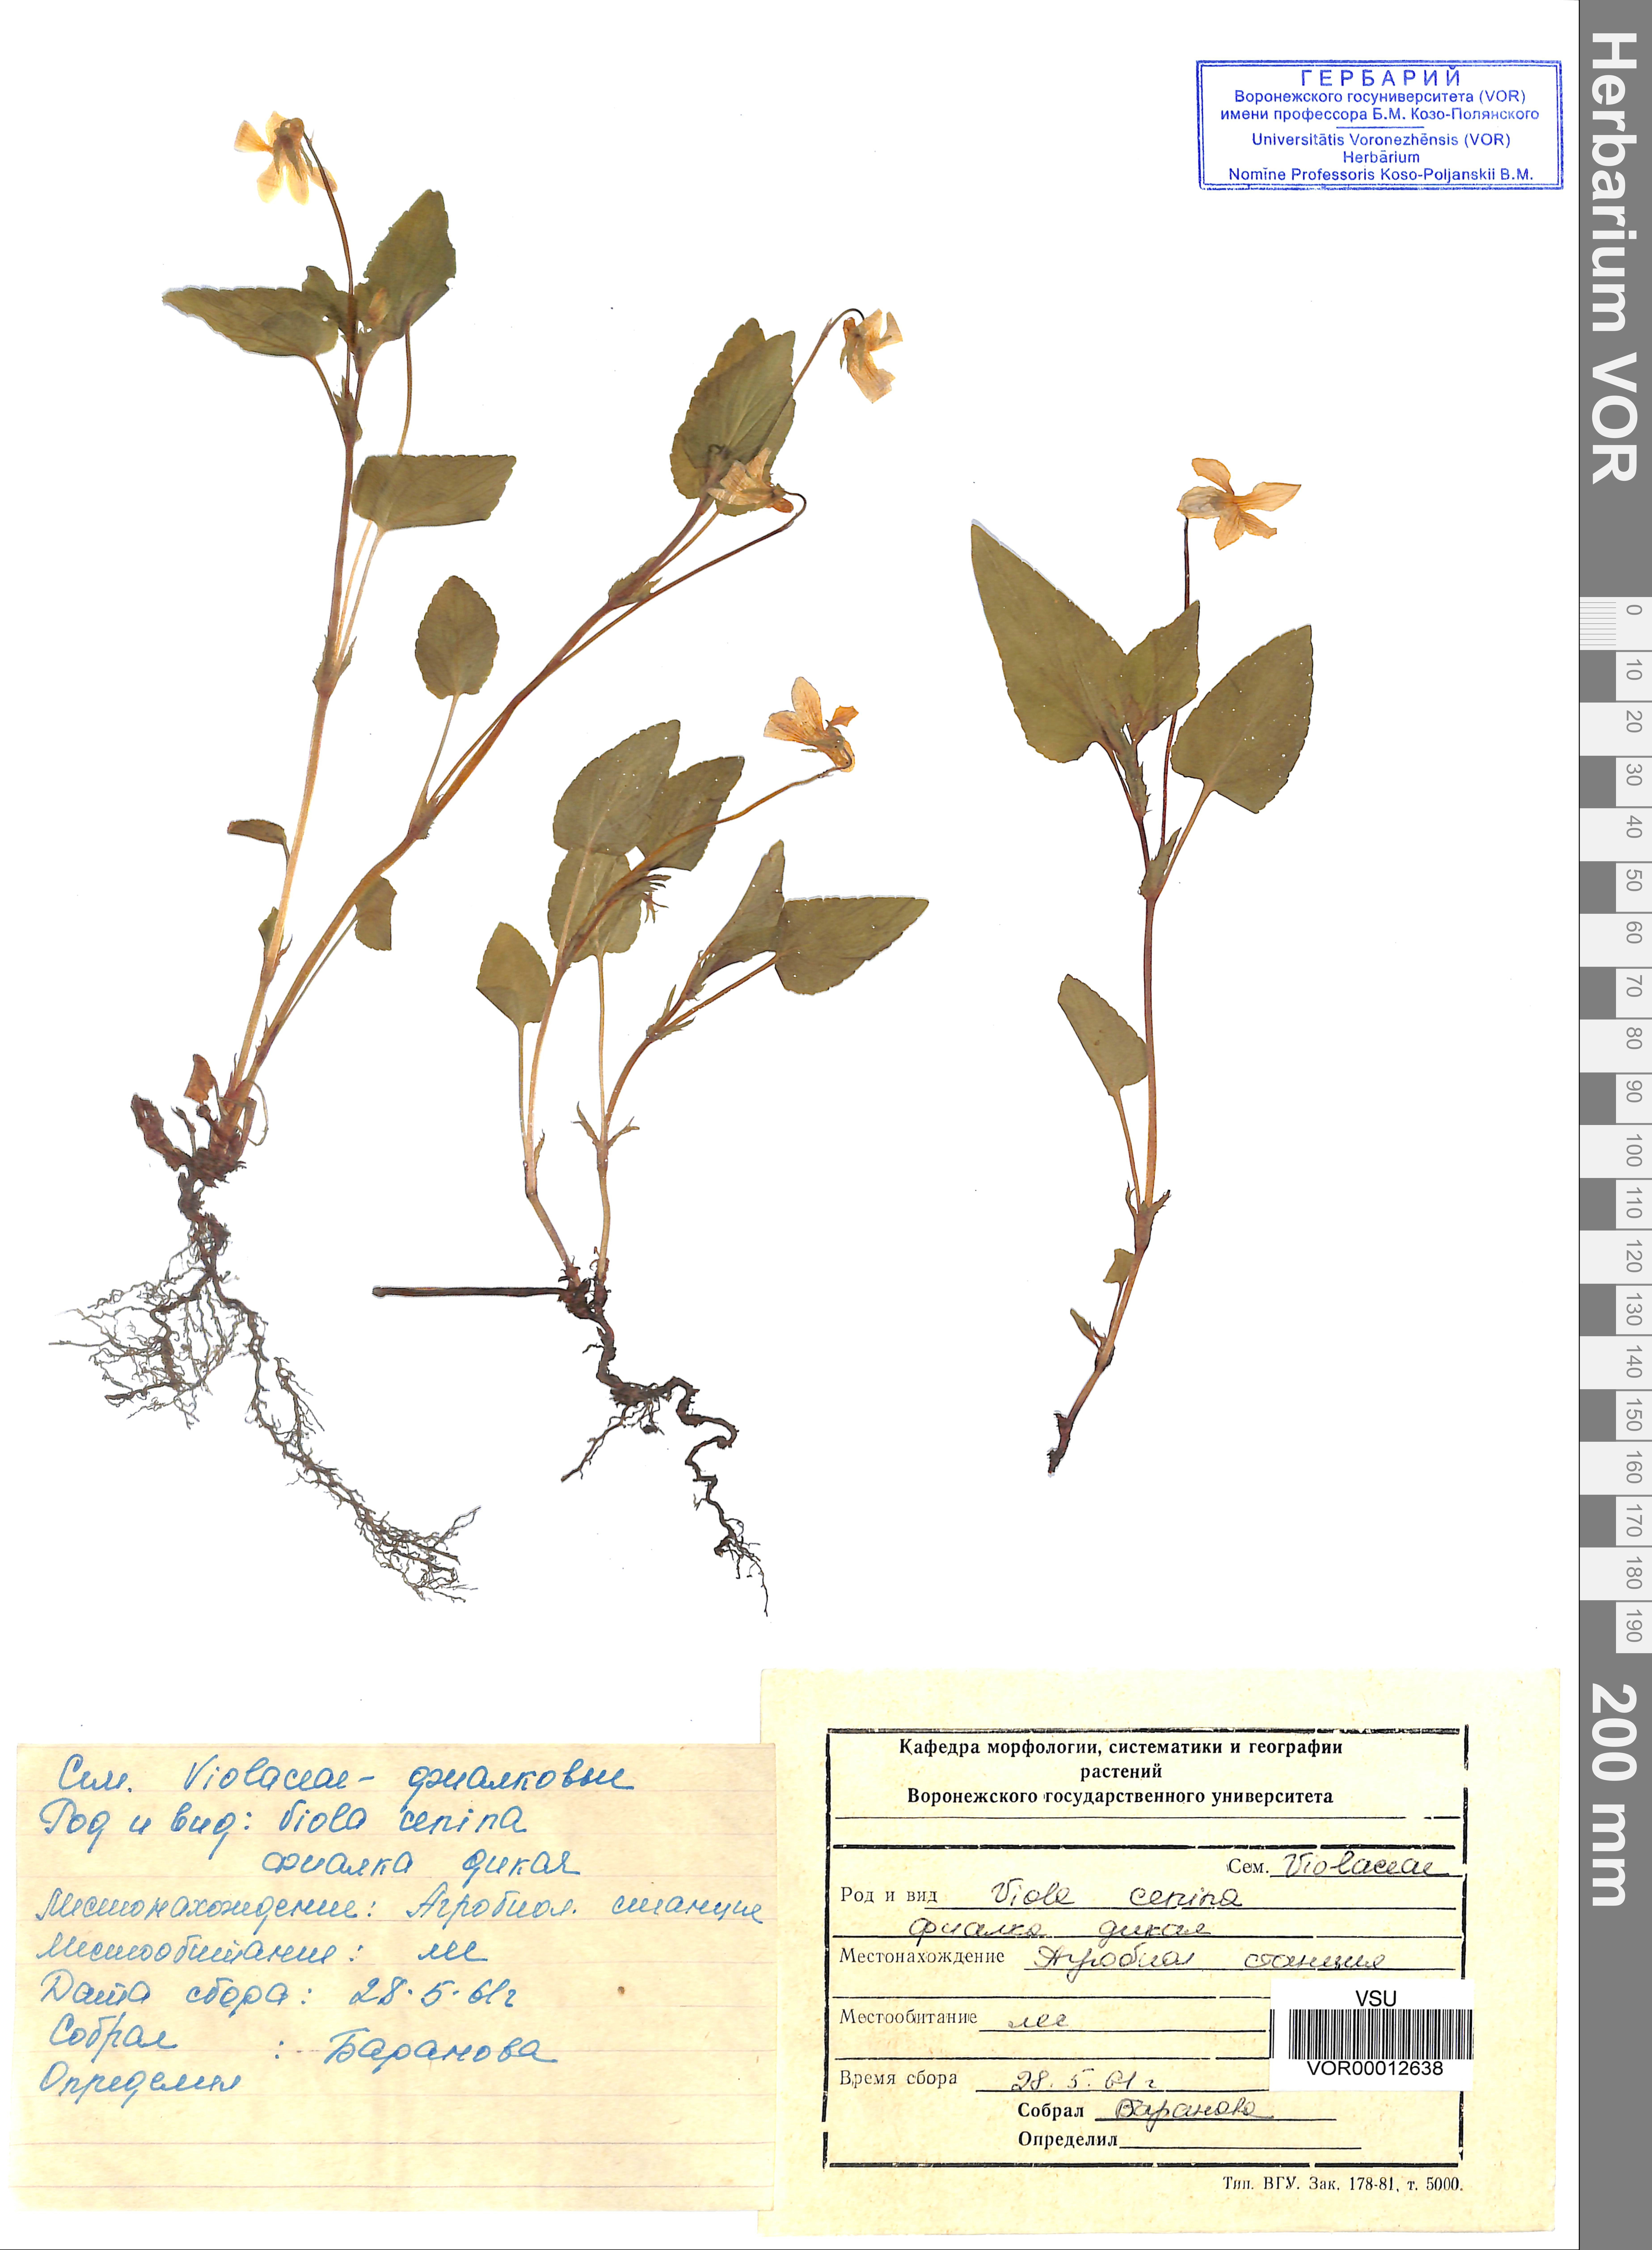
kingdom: Plantae
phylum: Tracheophyta
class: Magnoliopsida
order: Malpighiales
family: Violaceae
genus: Viola
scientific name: Viola canina
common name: Heath dog-violet
